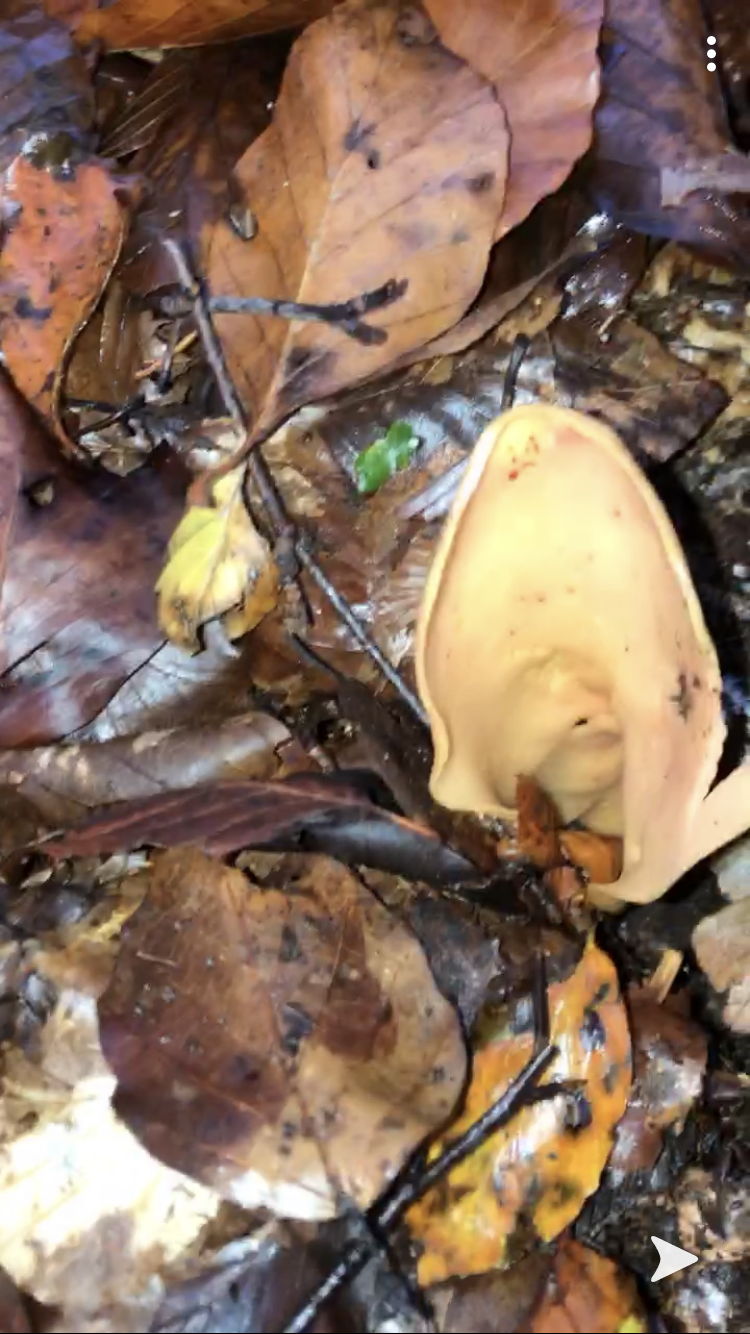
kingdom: Fungi
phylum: Ascomycota
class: Pezizomycetes
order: Pezizales
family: Otideaceae
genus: Otidea
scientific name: Otidea onotica
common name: æsel-ørebæger
